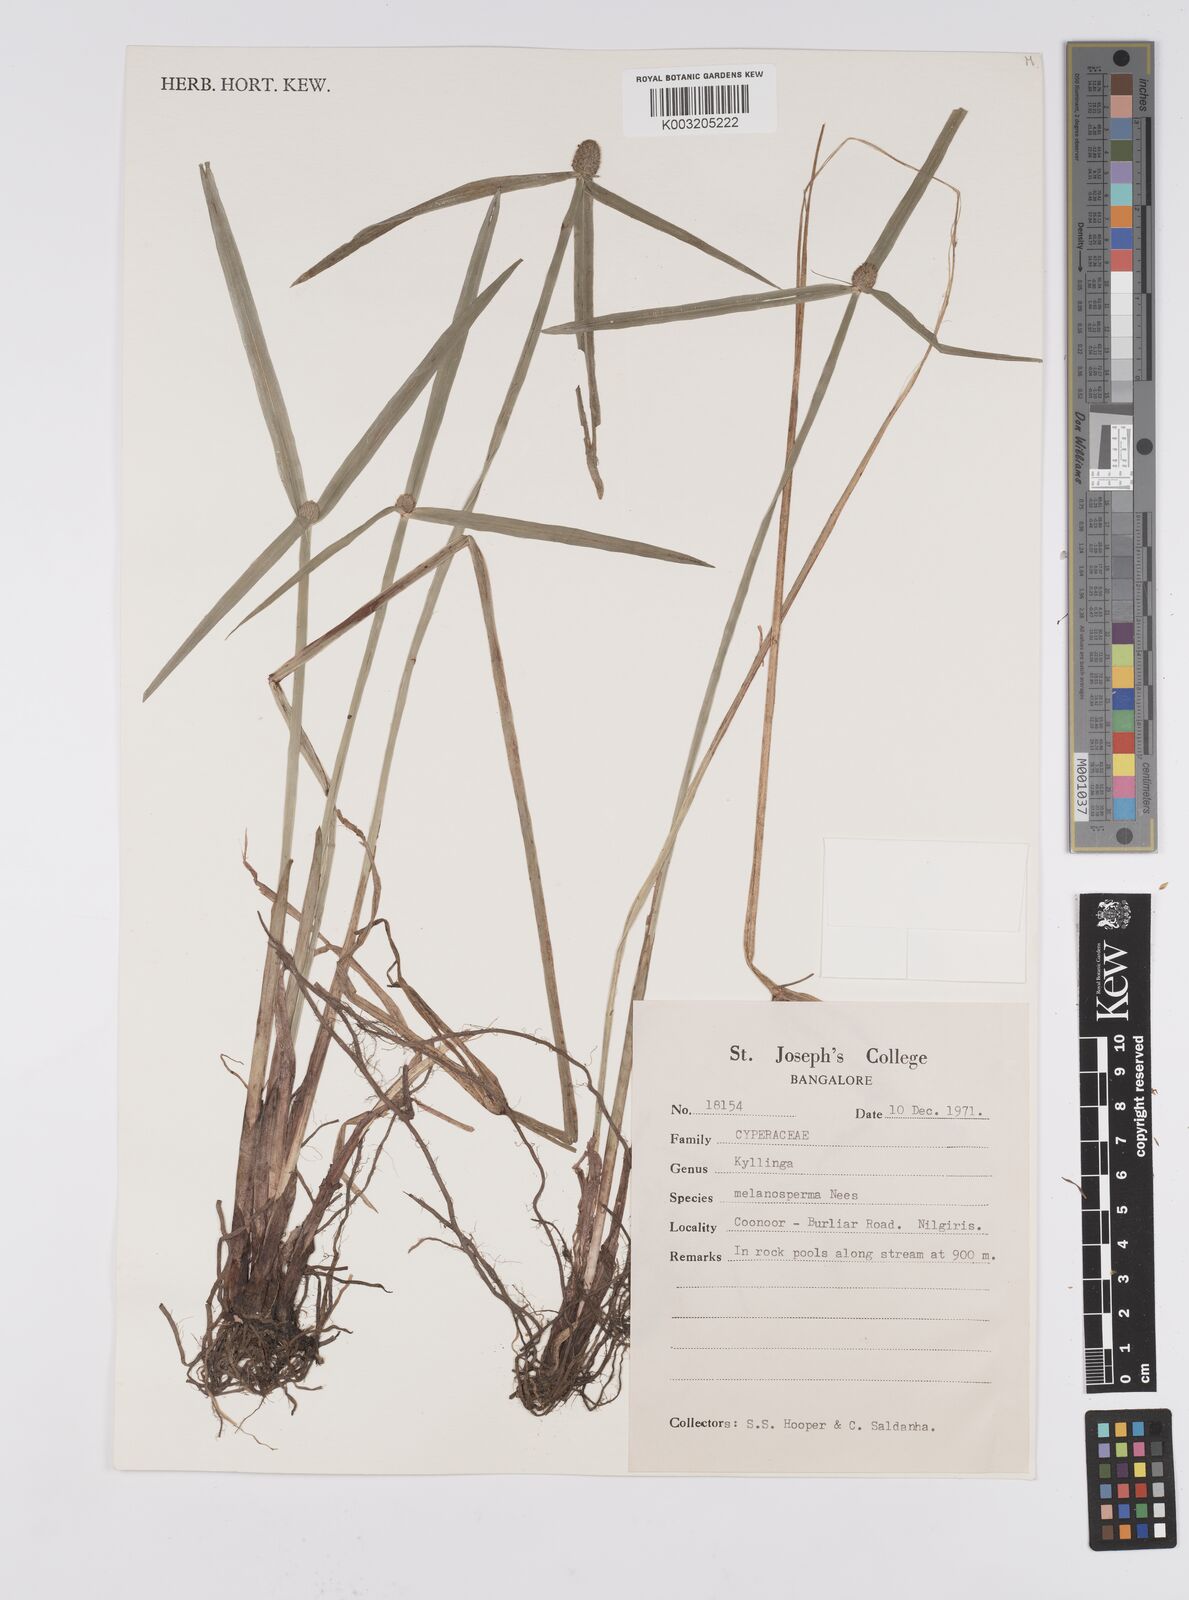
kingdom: Plantae
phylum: Tracheophyta
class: Liliopsida
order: Poales
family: Cyperaceae
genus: Cyperus
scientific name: Cyperus melanospermus
